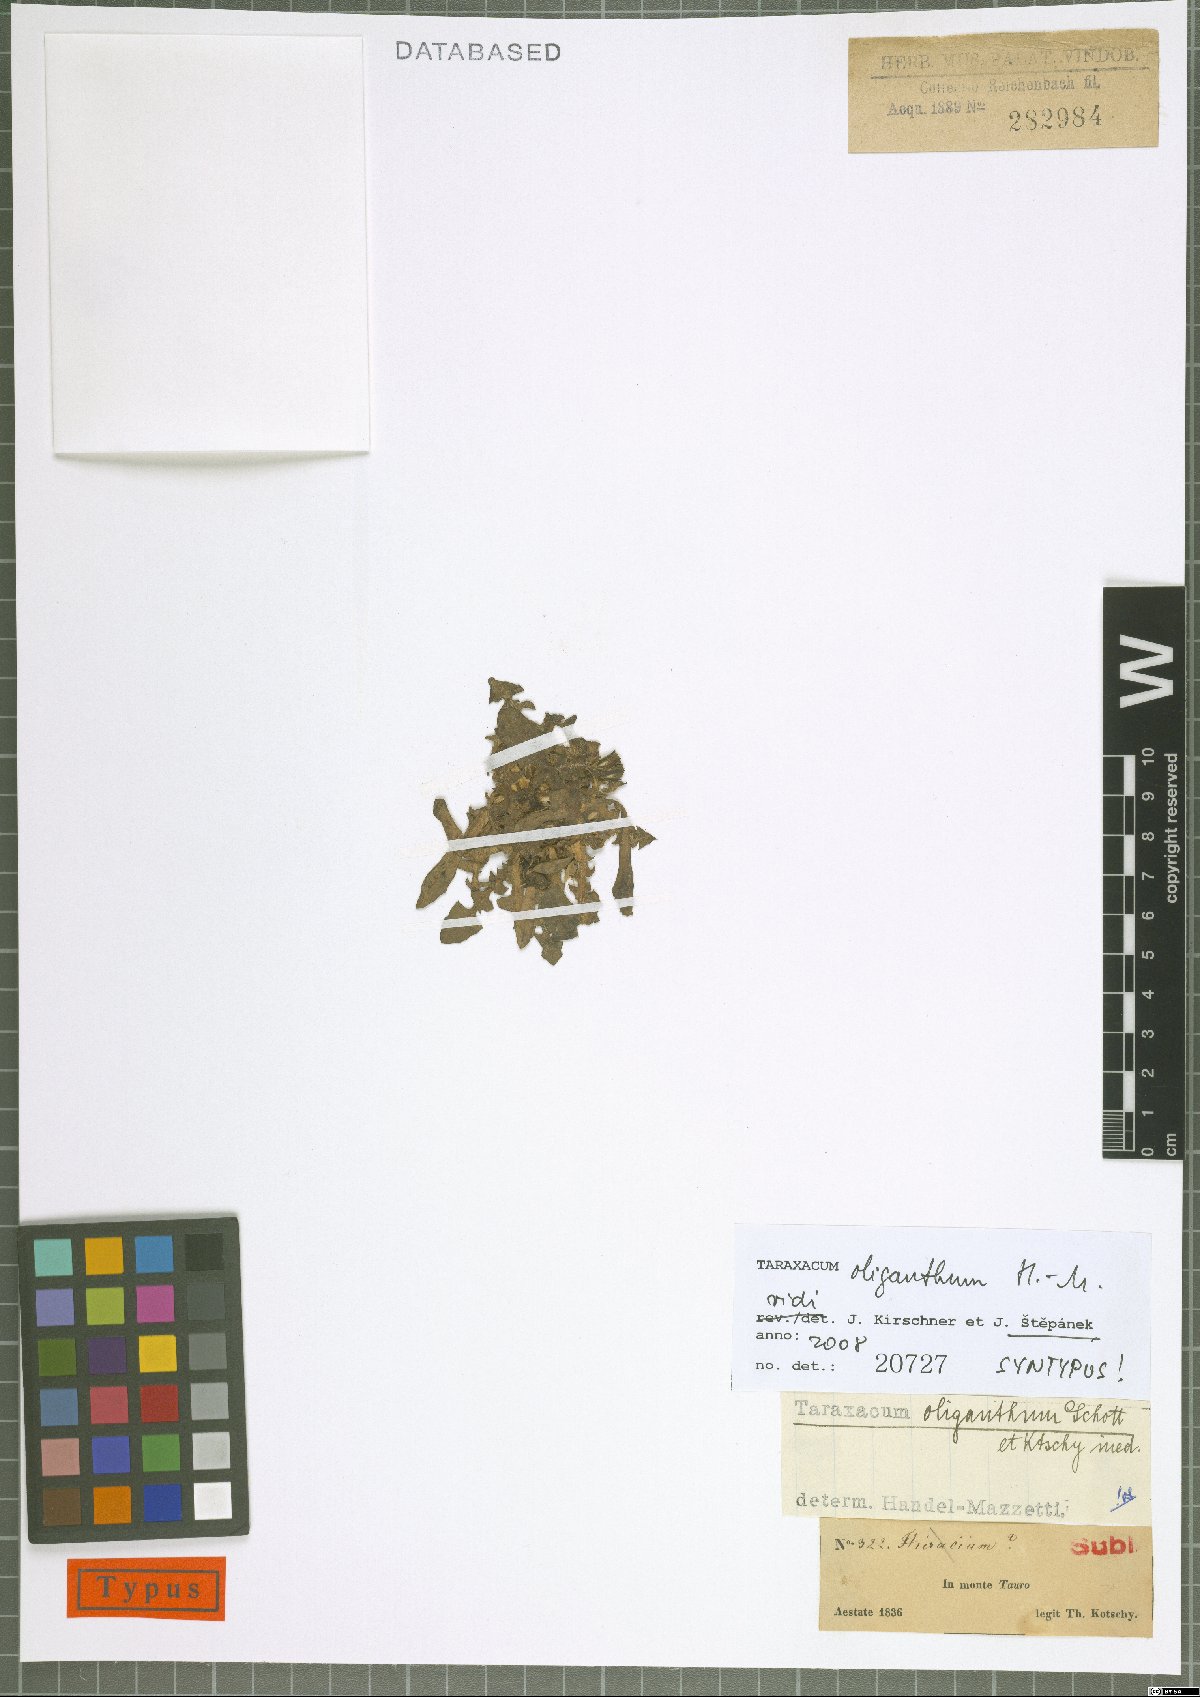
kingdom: Plantae
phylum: Tracheophyta
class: Magnoliopsida
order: Asterales
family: Asteraceae
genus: Taraxacum
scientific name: Taraxacum oliganthum
